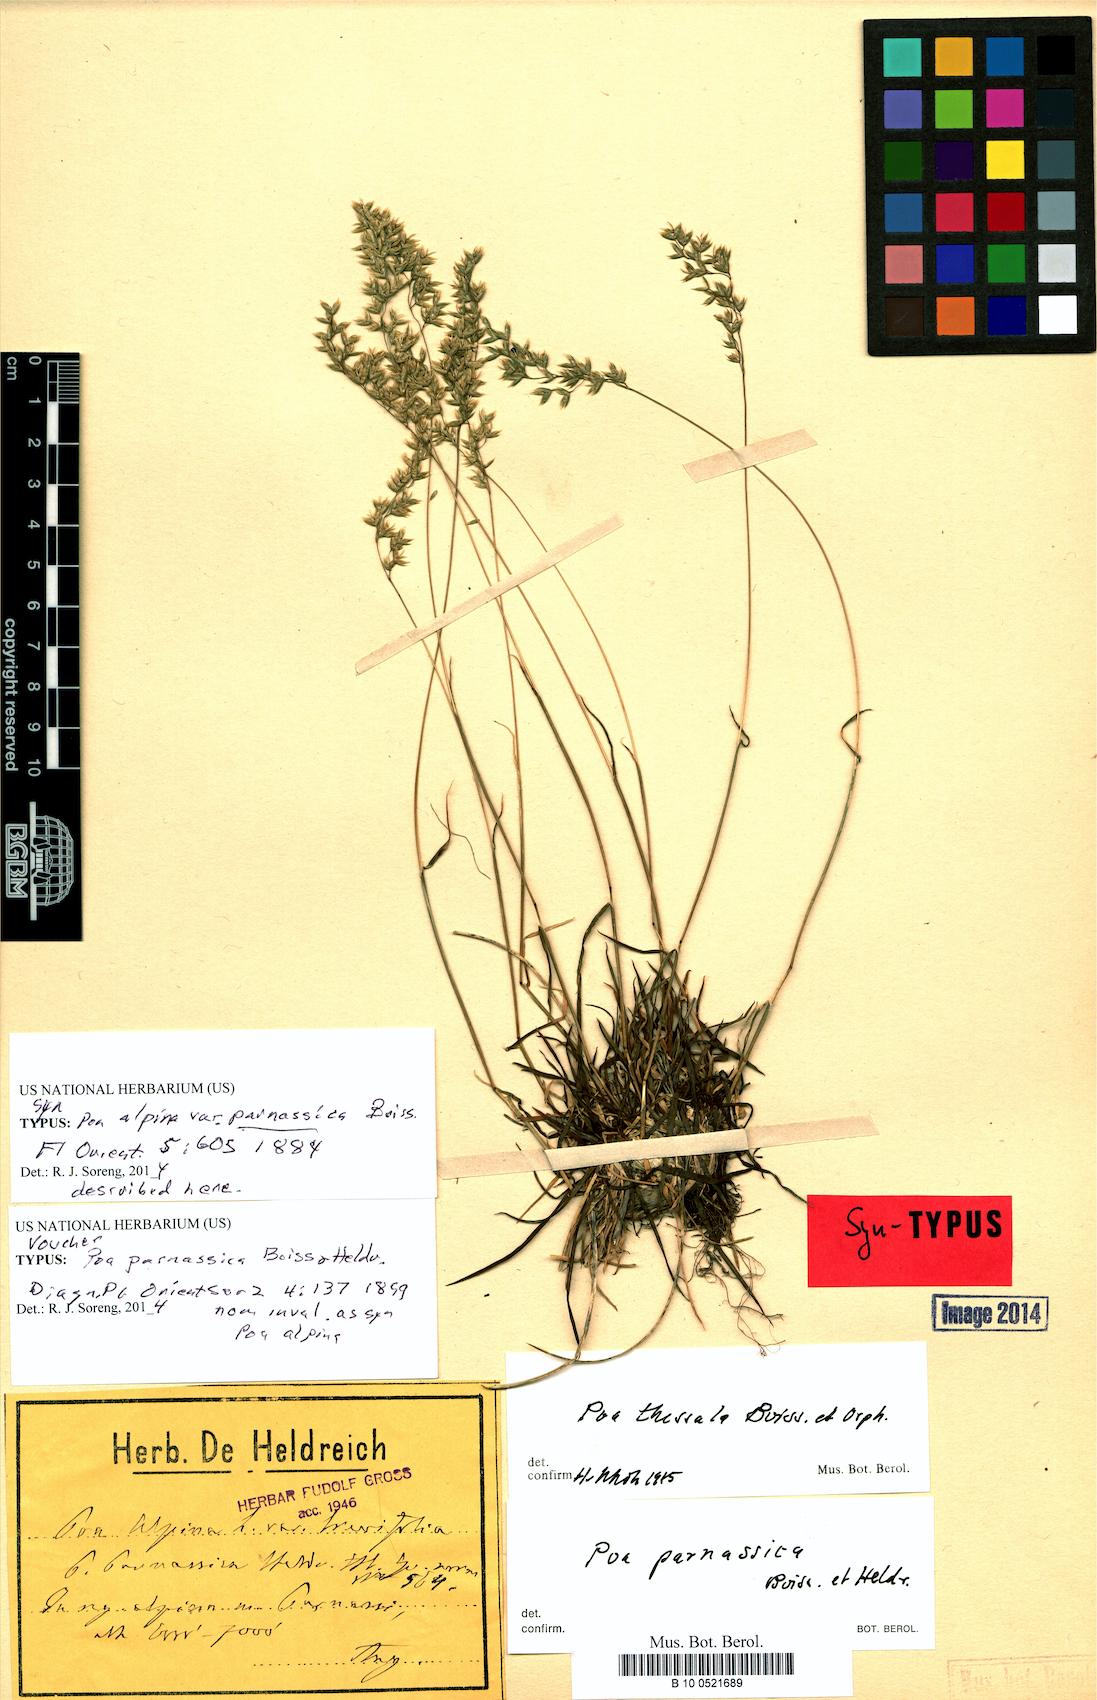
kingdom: Plantae
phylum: Tracheophyta
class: Liliopsida
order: Poales
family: Poaceae
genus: Poa
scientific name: Poa pumila
